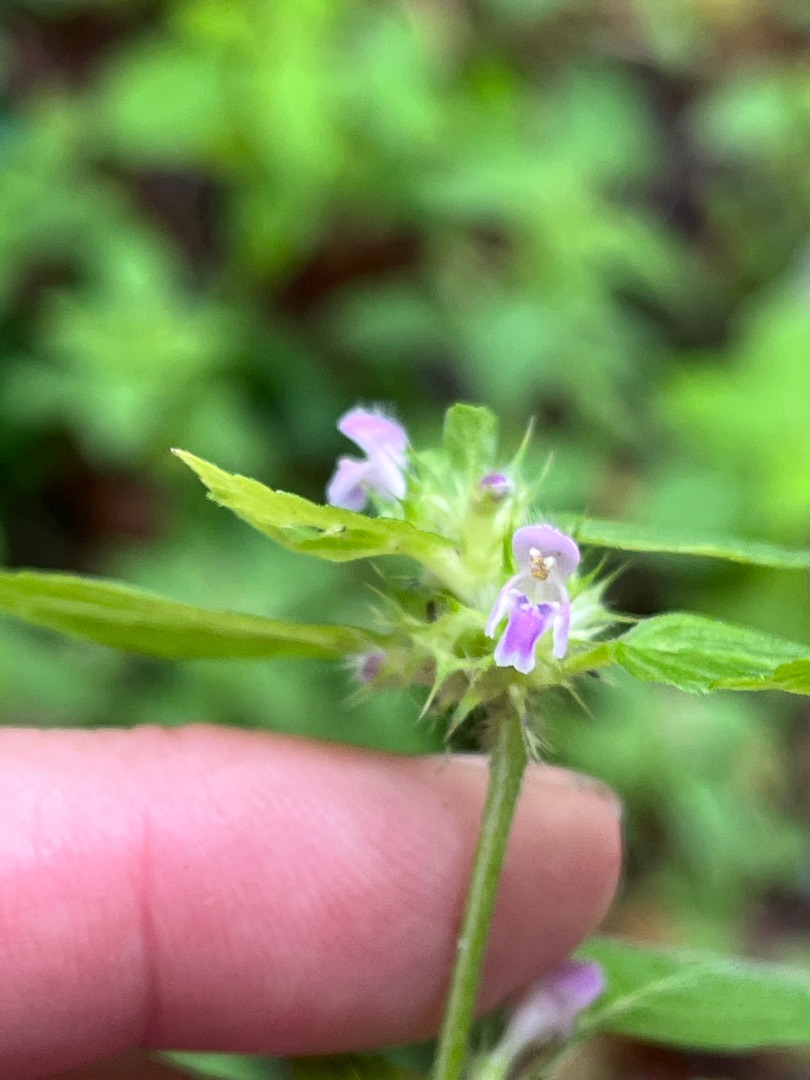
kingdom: Plantae
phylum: Tracheophyta
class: Magnoliopsida
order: Lamiales
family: Lamiaceae
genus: Galeopsis
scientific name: Galeopsis bifida
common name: Skov-hanekro
